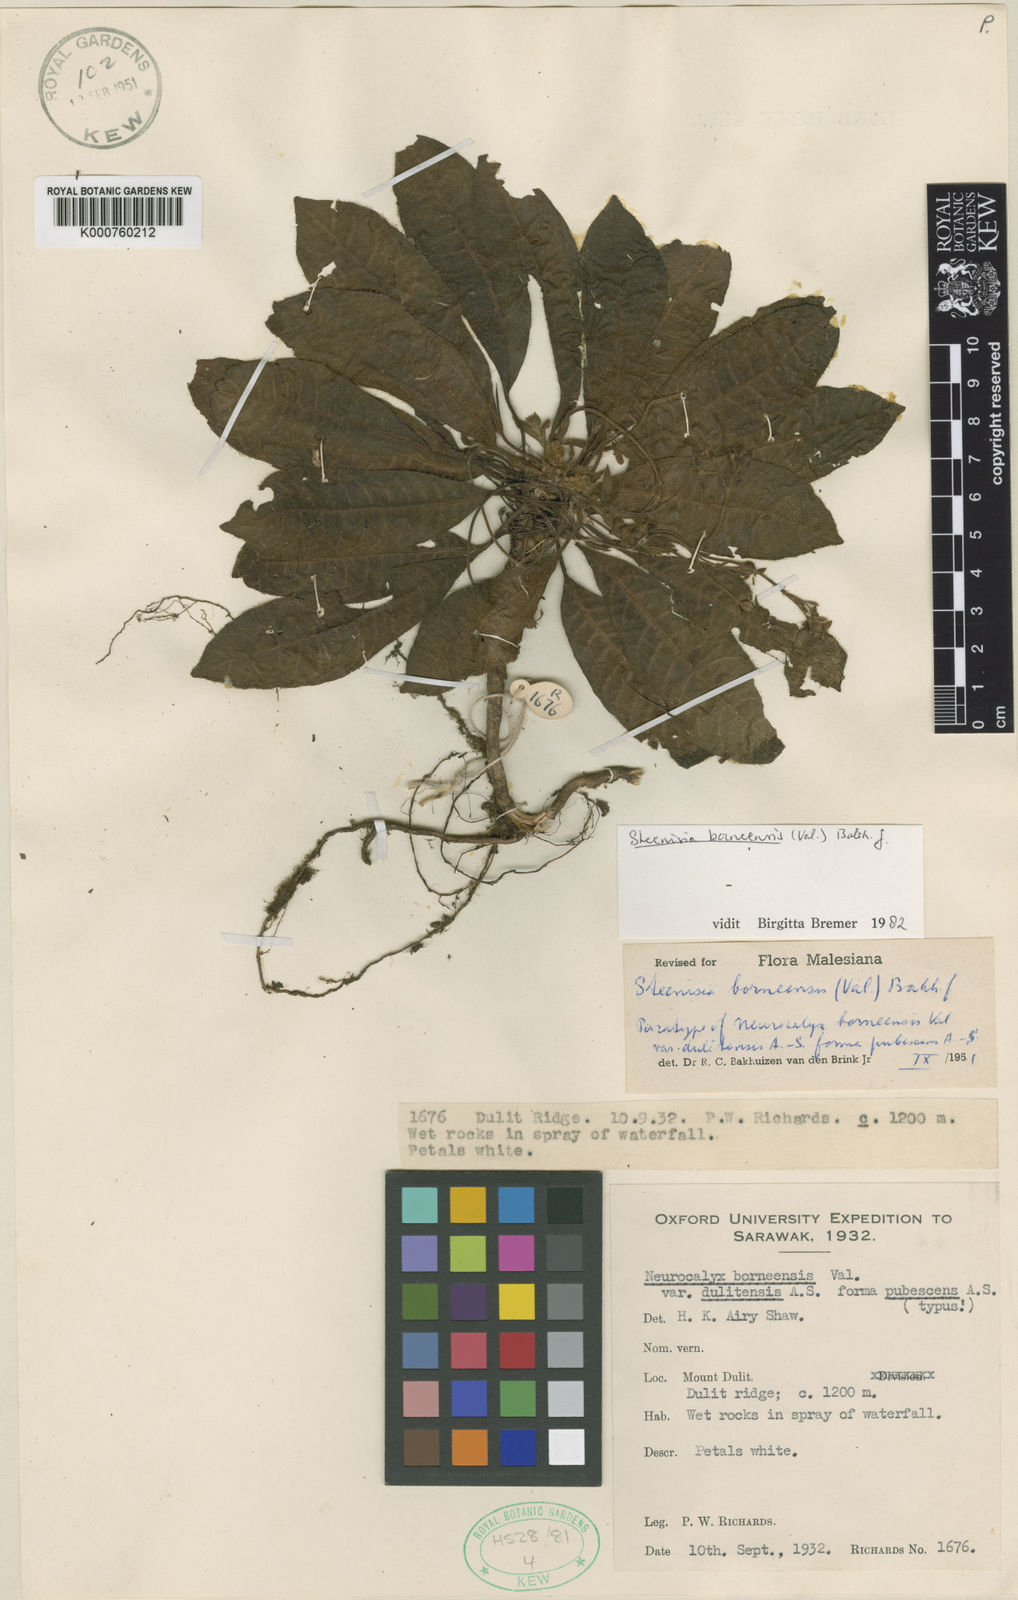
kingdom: Plantae
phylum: Tracheophyta
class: Magnoliopsida
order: Gentianales
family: Rubiaceae
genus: Steenisia
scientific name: Steenisia borneensis
